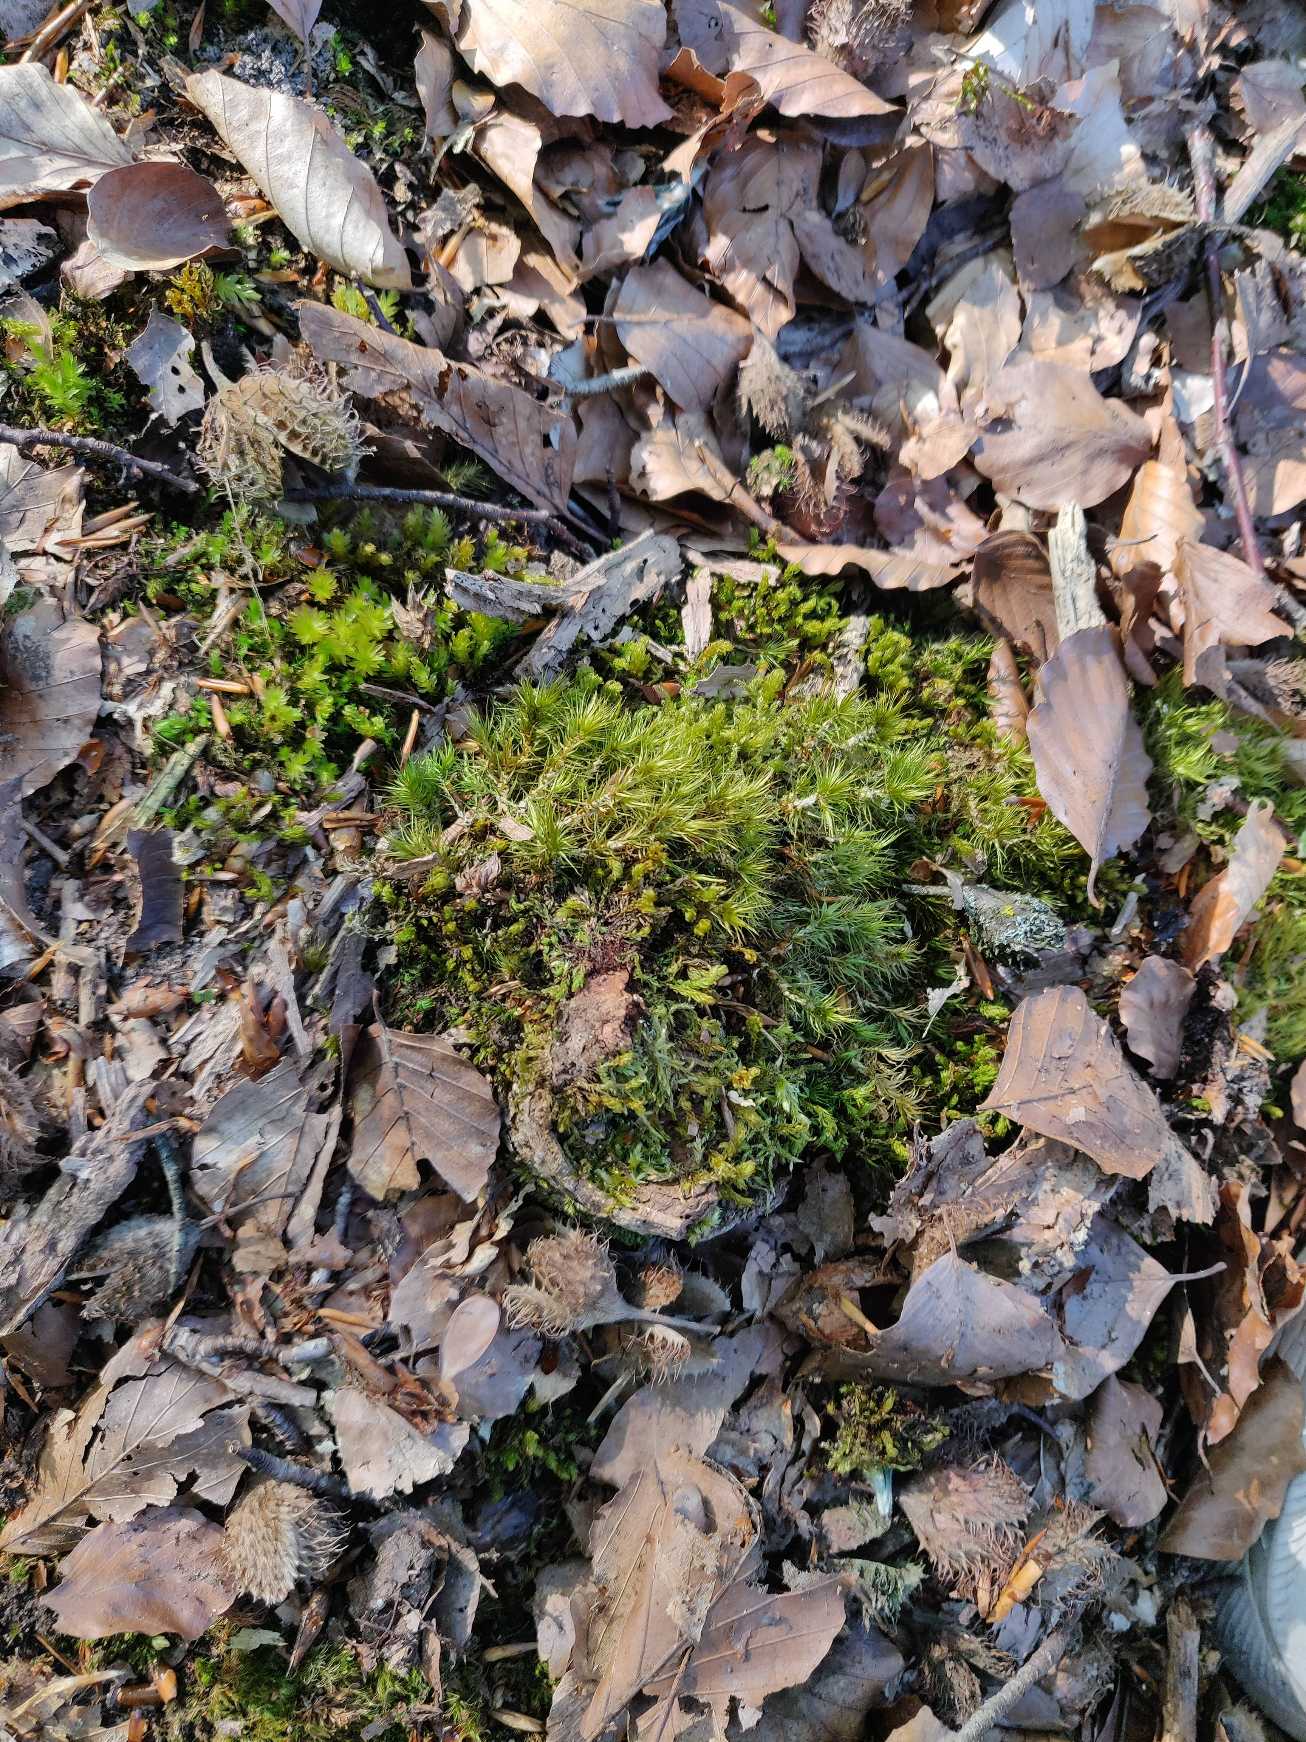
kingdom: Plantae
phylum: Bryophyta
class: Bryopsida
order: Dicranales
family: Dicranaceae
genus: Dicranum
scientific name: Dicranum scoparium
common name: Almindelig kløvtand
